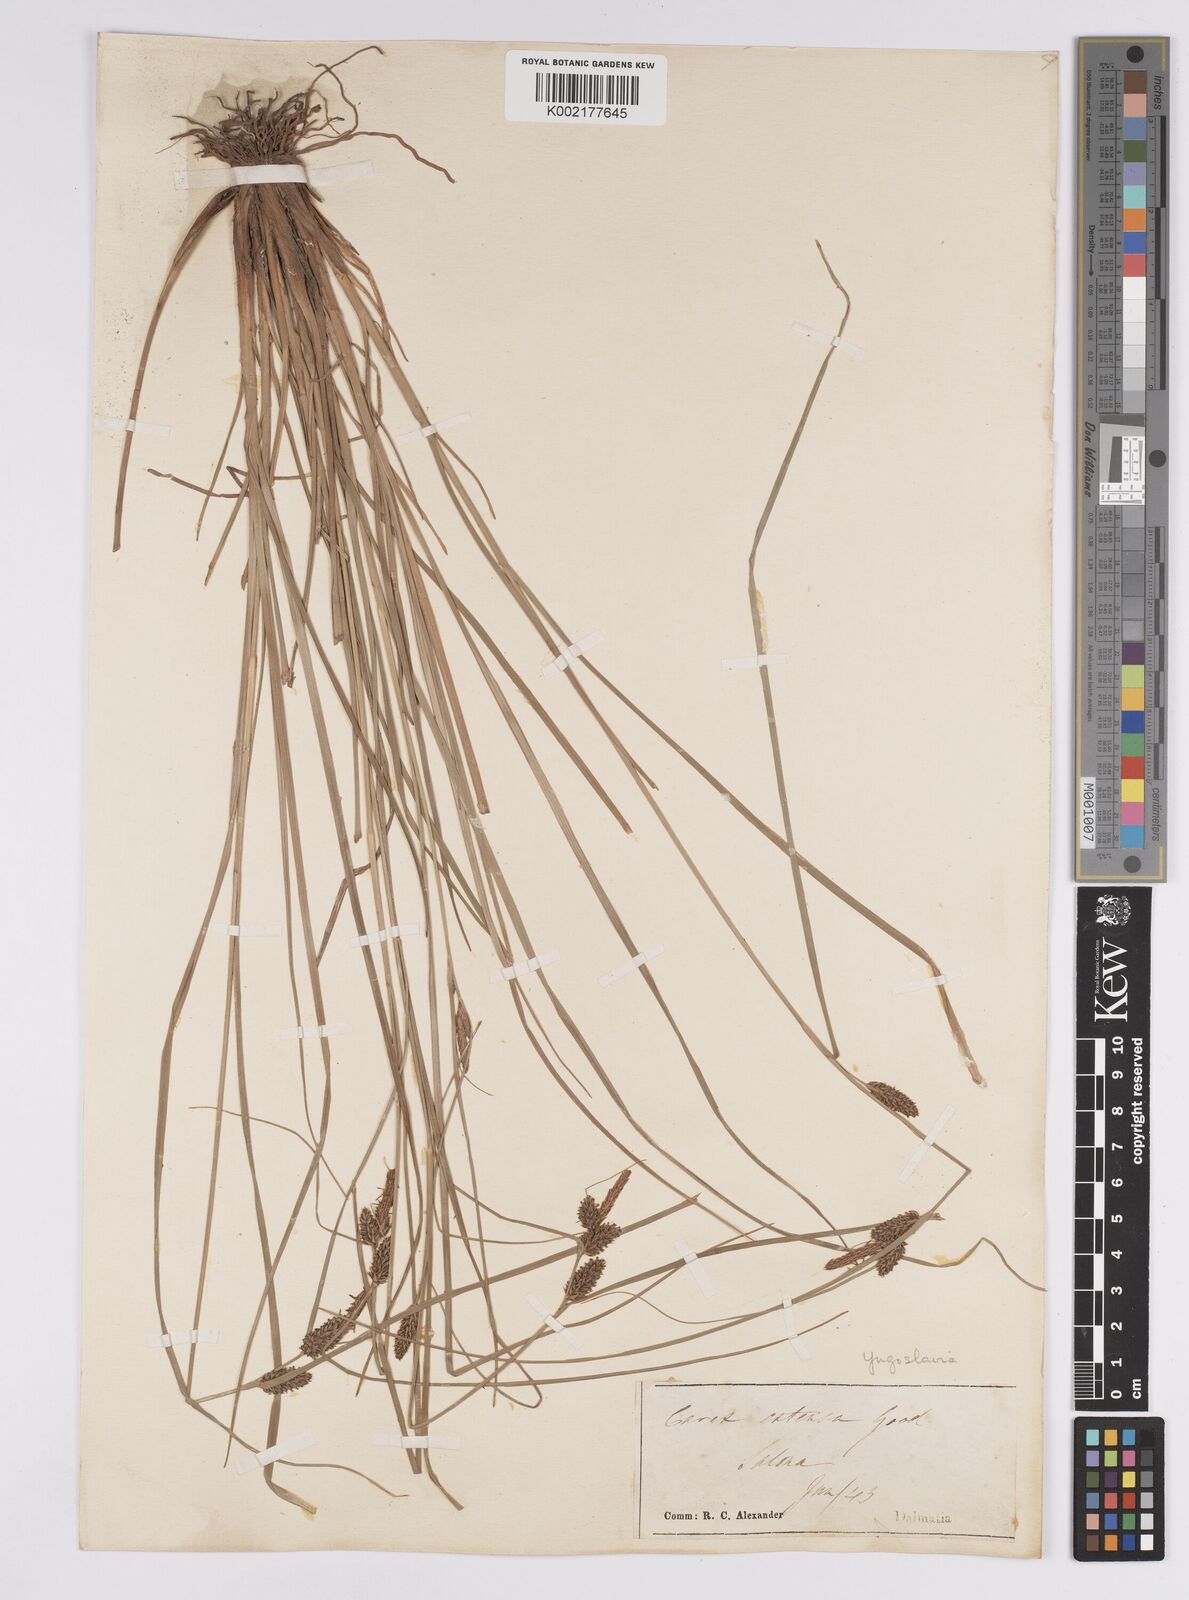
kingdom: Plantae
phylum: Tracheophyta
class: Liliopsida
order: Poales
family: Cyperaceae
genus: Carex
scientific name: Carex extensa
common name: Long-bracted sedge
